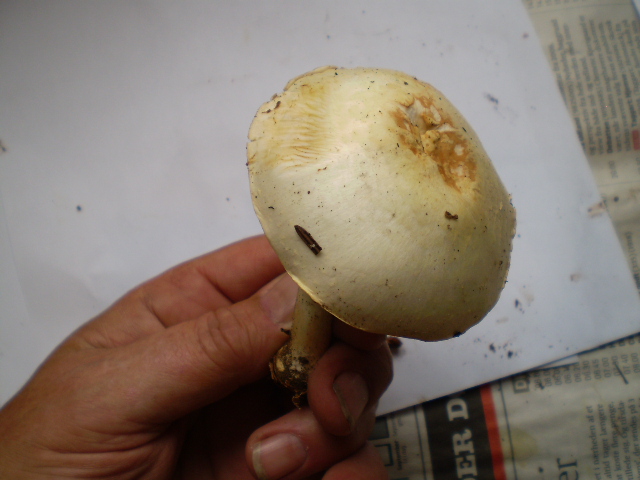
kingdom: Fungi
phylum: Basidiomycota
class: Agaricomycetes
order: Agaricales
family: Agaricaceae
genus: Agaricus
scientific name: Agaricus sylvicola
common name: skiveknoldet champignon
